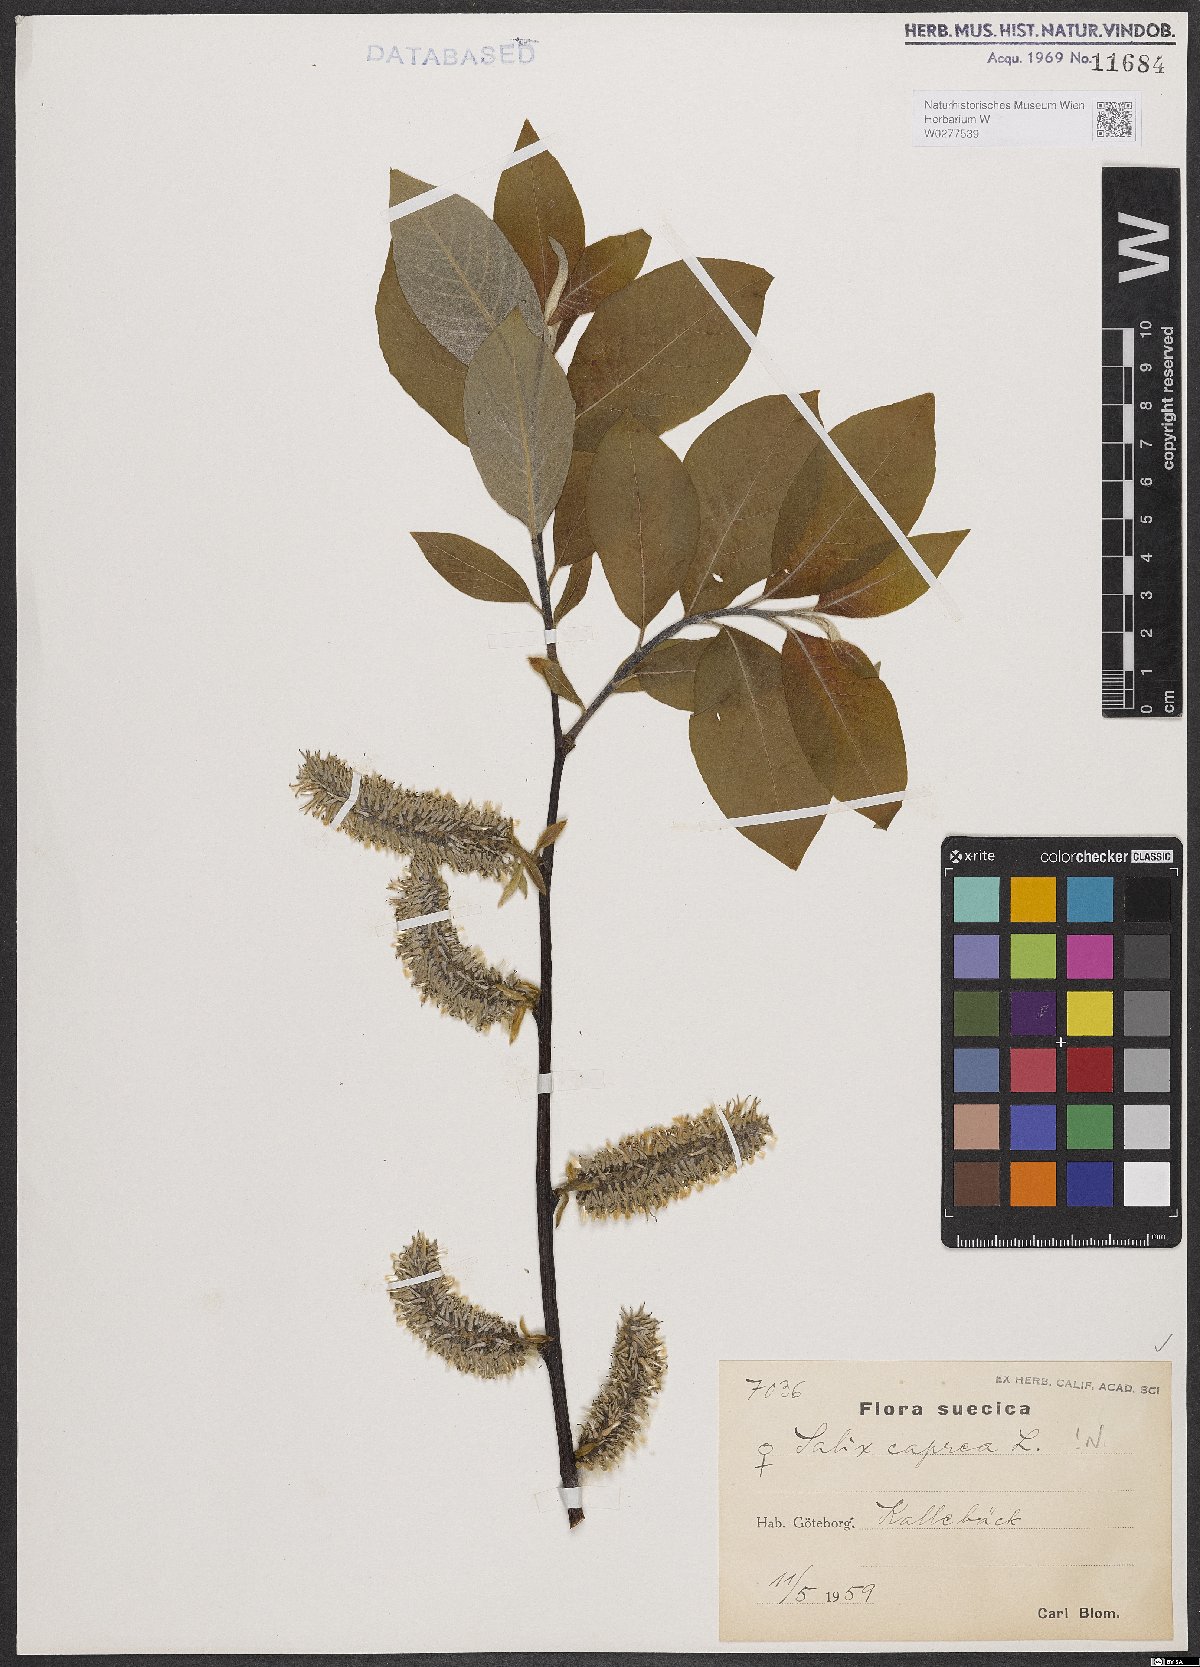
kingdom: Plantae
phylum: Tracheophyta
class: Magnoliopsida
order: Malpighiales
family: Salicaceae
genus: Salix
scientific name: Salix caprea
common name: Goat willow
